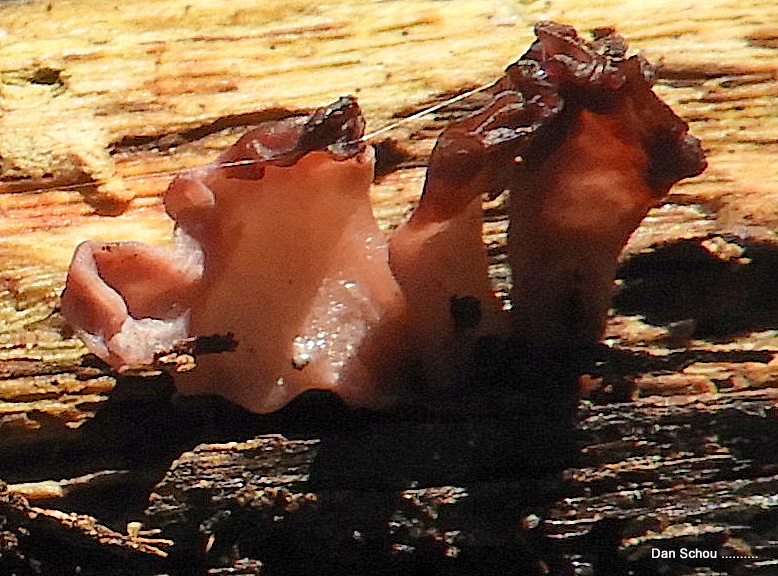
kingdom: Fungi
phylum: Ascomycota
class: Leotiomycetes
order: Helotiales
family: Gelatinodiscaceae
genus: Ascocoryne
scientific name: Ascocoryne sarcoides
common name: rødlilla sejskive
